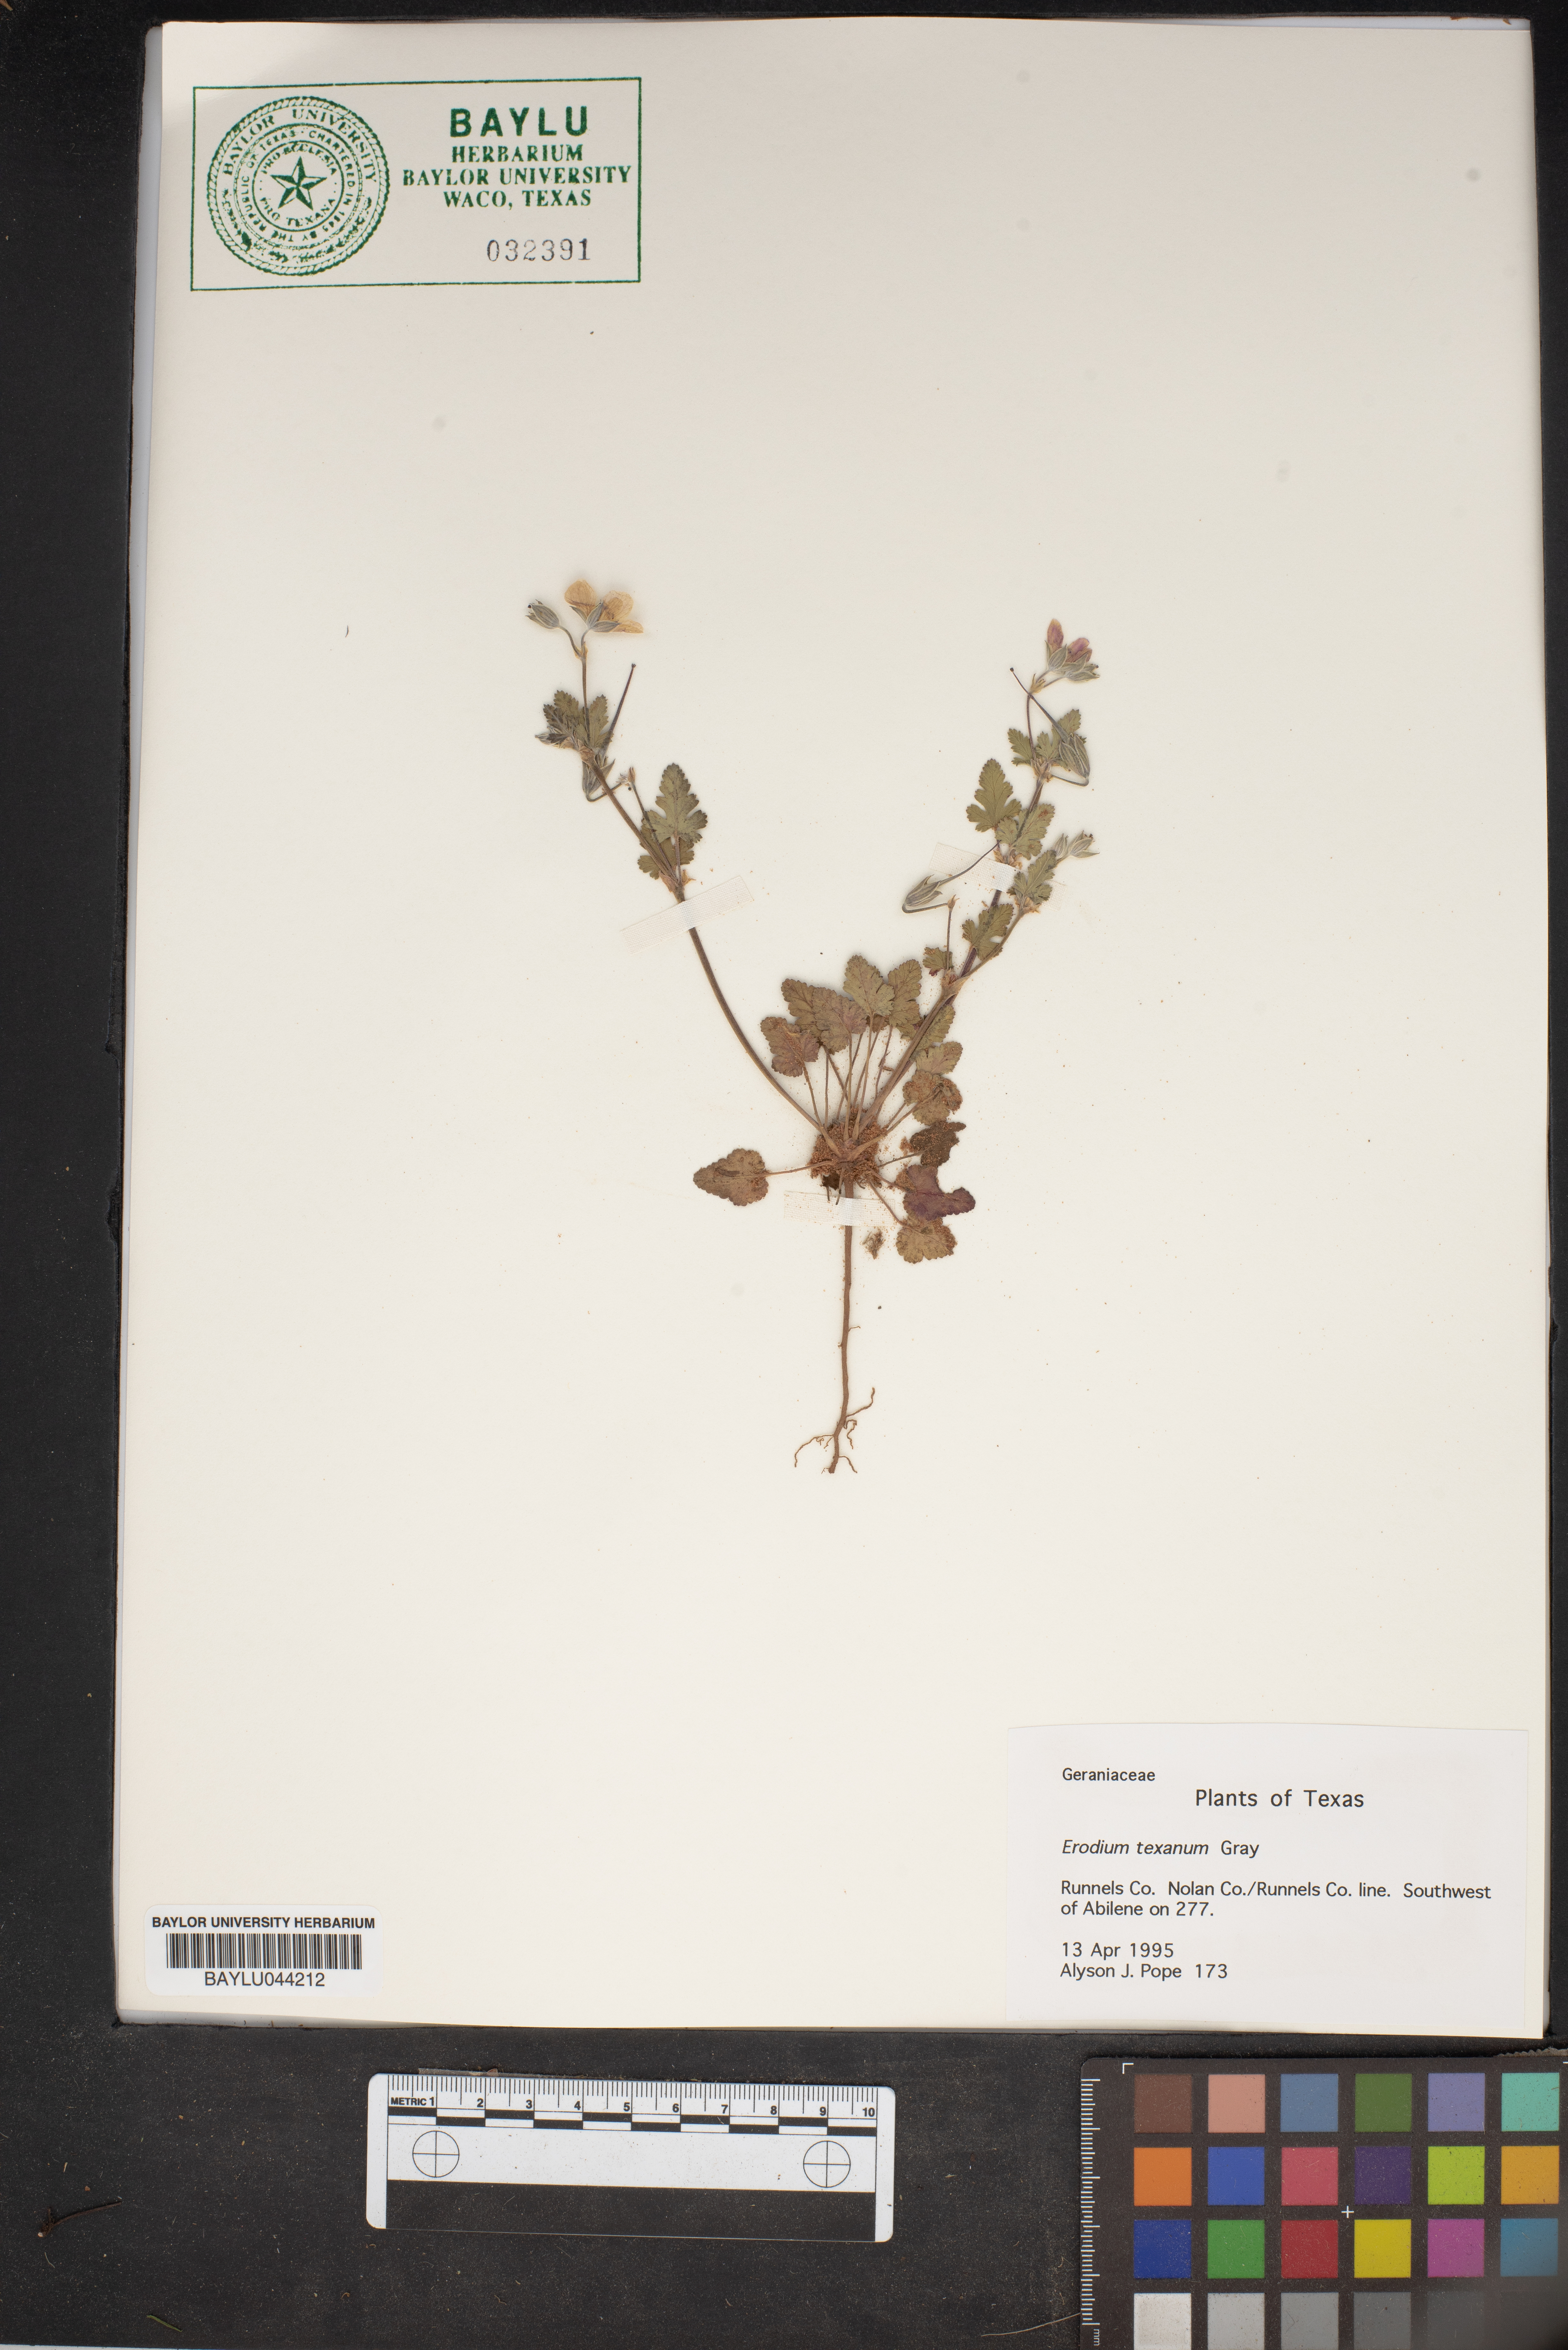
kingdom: Plantae
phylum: Tracheophyta
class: Magnoliopsida
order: Geraniales
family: Geraniaceae
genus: Erodium
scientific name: Erodium texanum
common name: Texas stork's-bill
